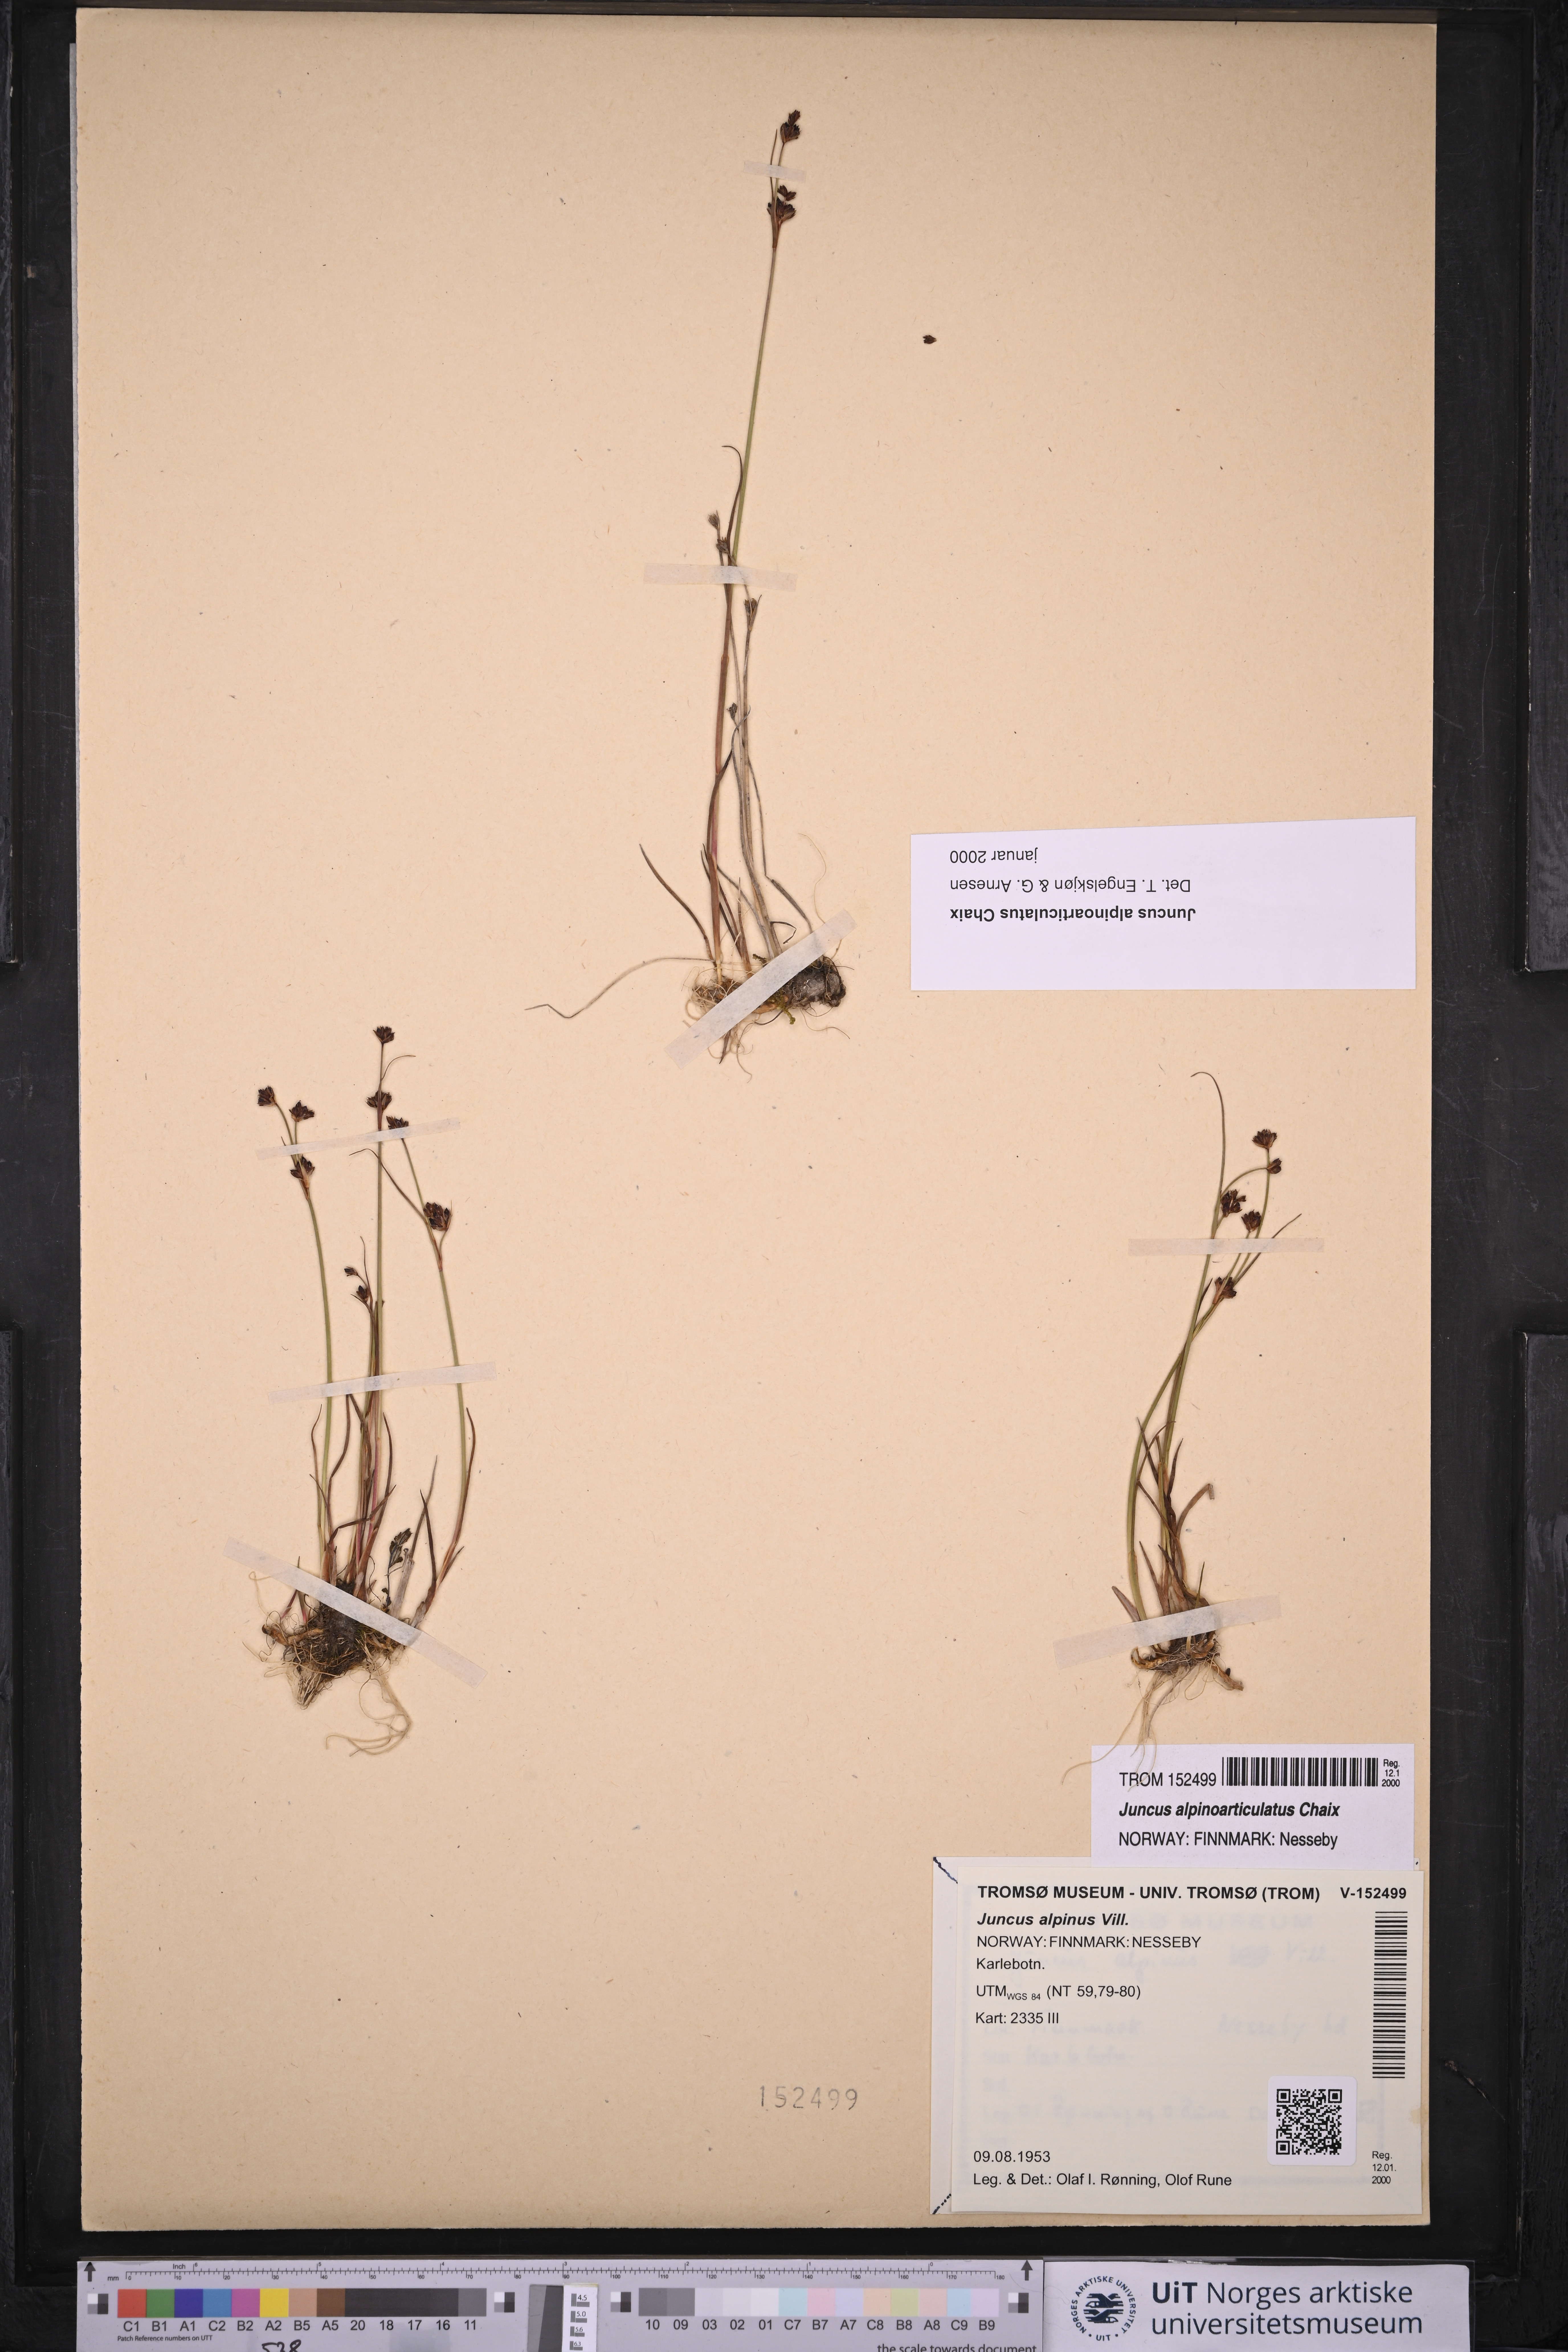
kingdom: Plantae
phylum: Tracheophyta
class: Liliopsida
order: Poales
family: Juncaceae
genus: Juncus
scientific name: Juncus alpinoarticulatus
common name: Alpine rush
